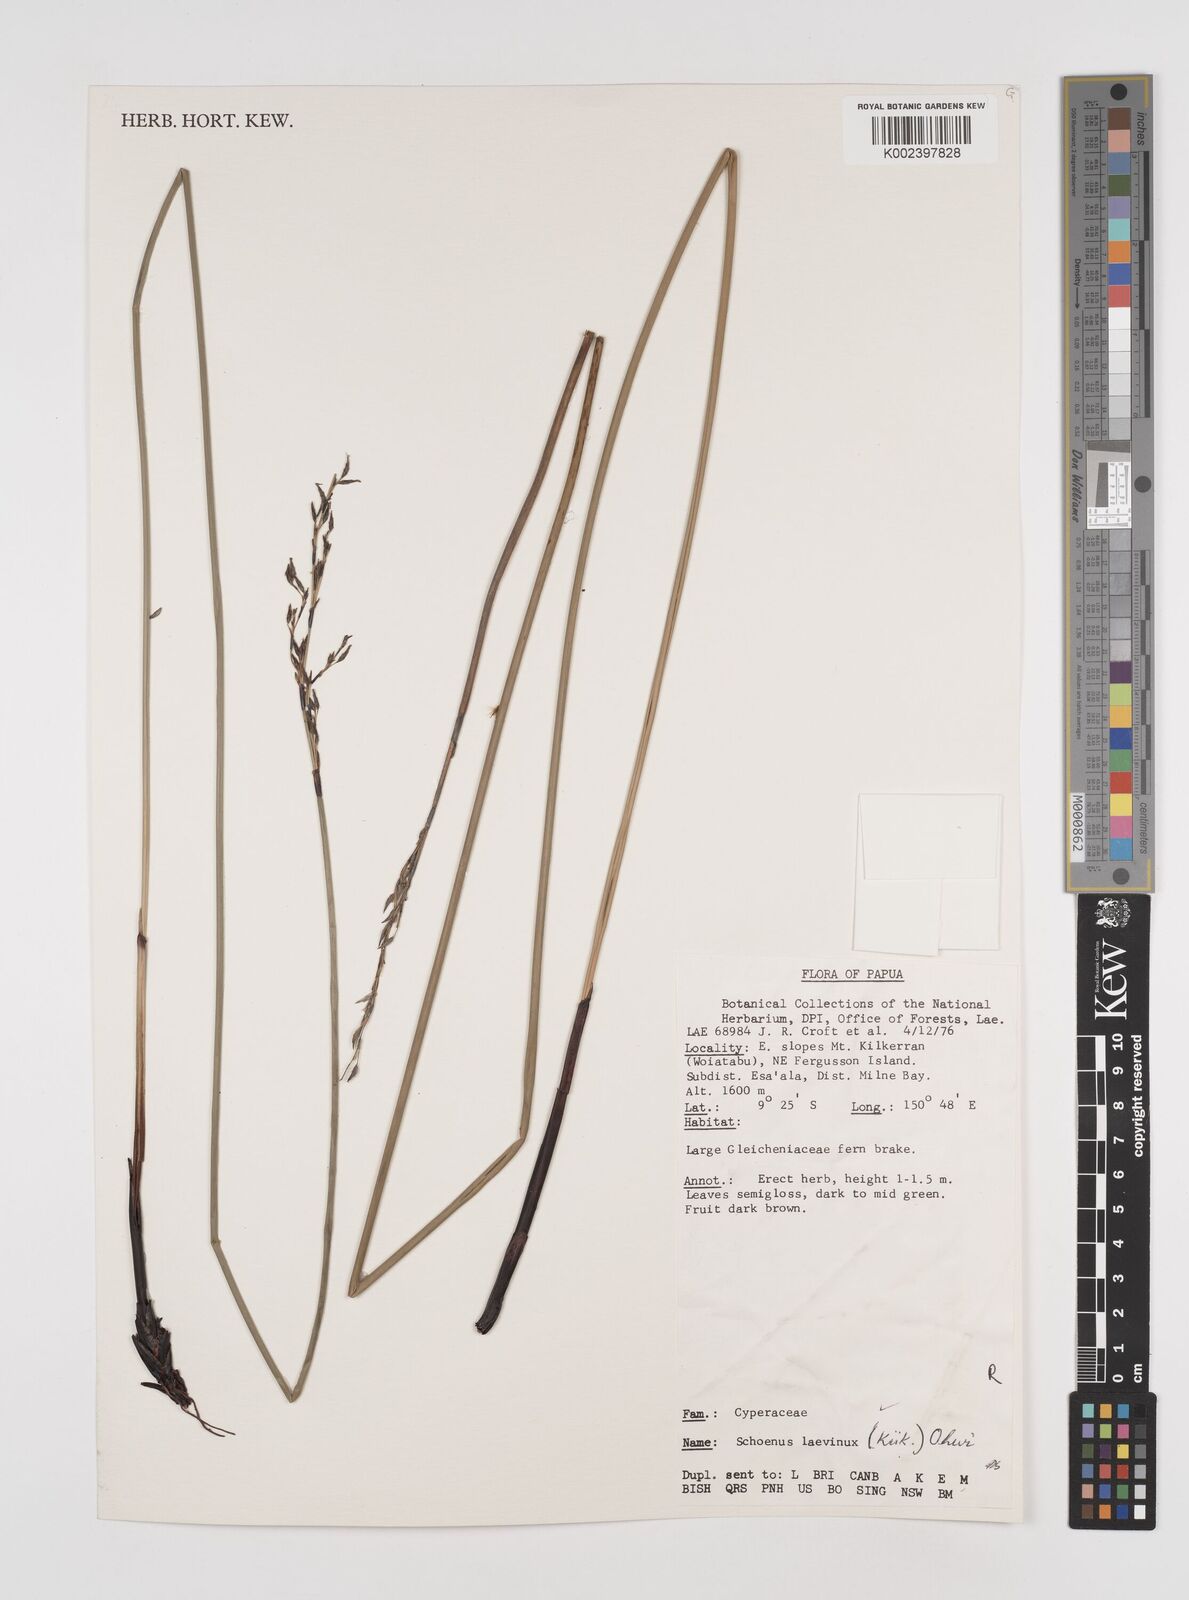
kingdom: Plantae
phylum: Tracheophyta
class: Liliopsida
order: Poales
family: Cyperaceae
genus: Schoenus
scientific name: Schoenus laevinux
